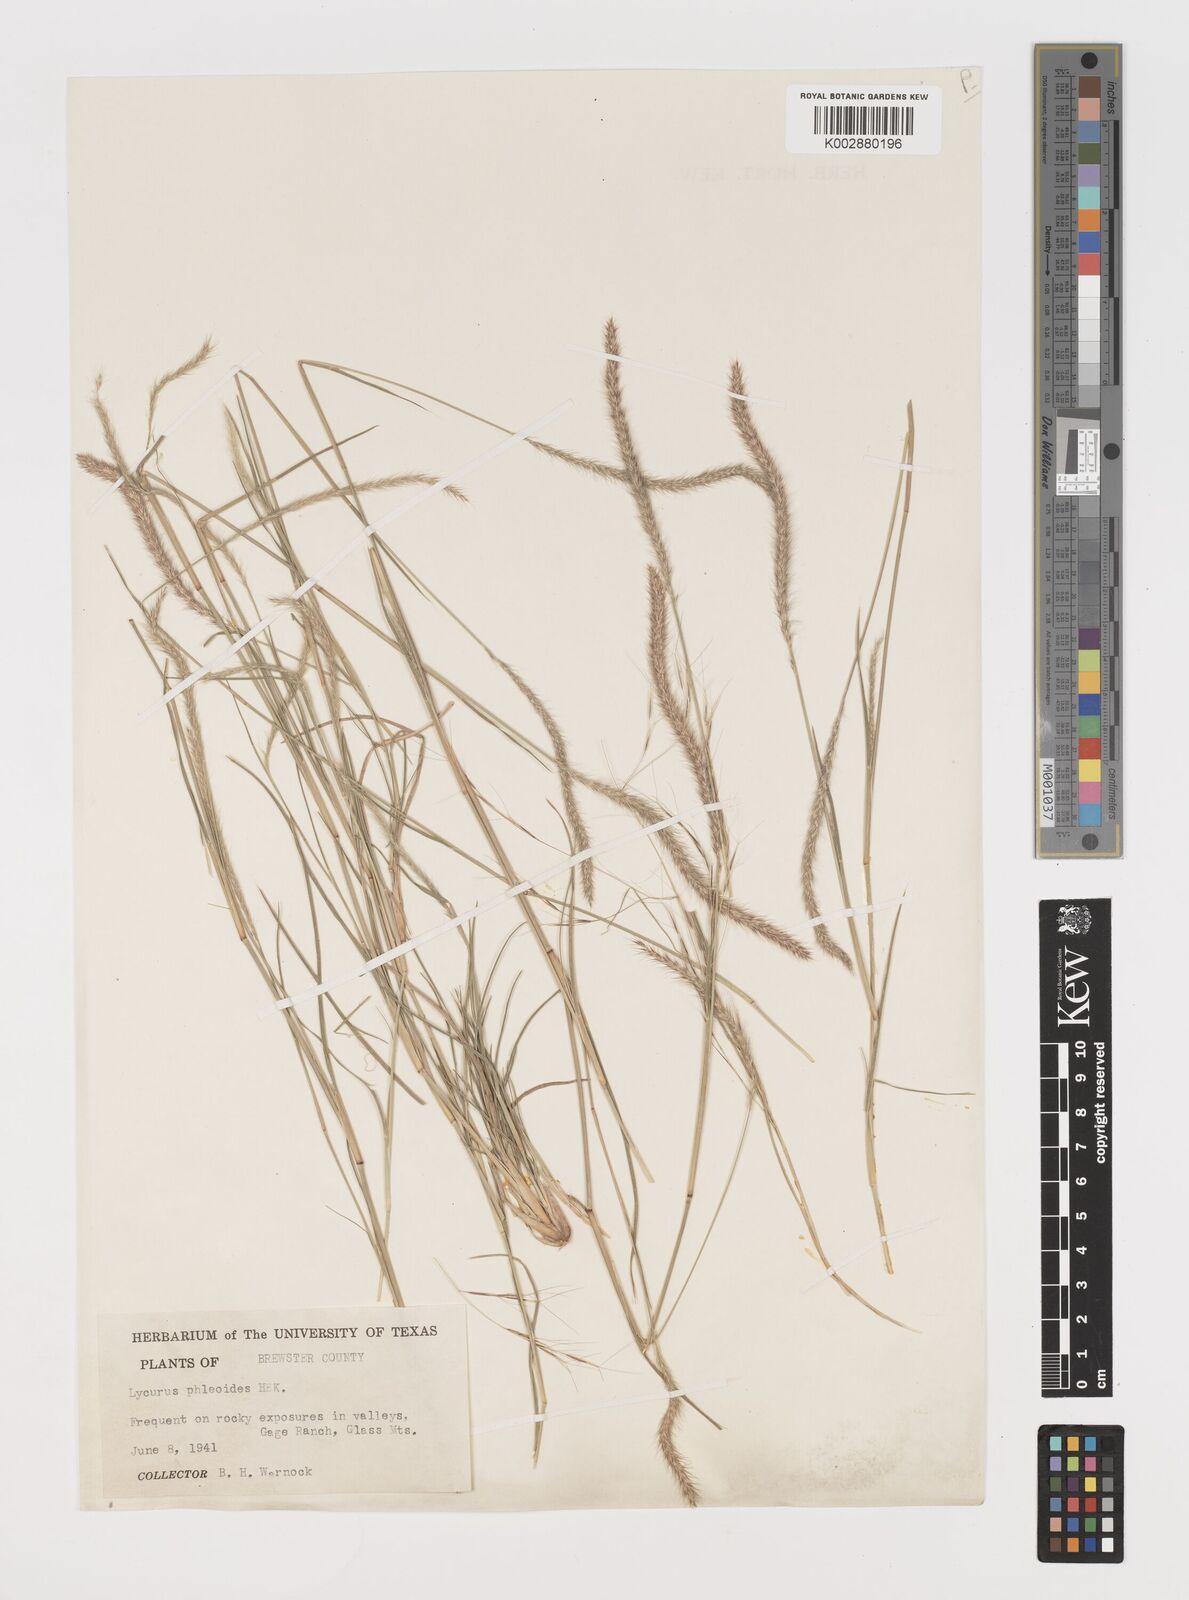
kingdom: Plantae
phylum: Tracheophyta
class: Liliopsida
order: Poales
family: Poaceae
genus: Muhlenbergia
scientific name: Muhlenbergia alopecuroides
